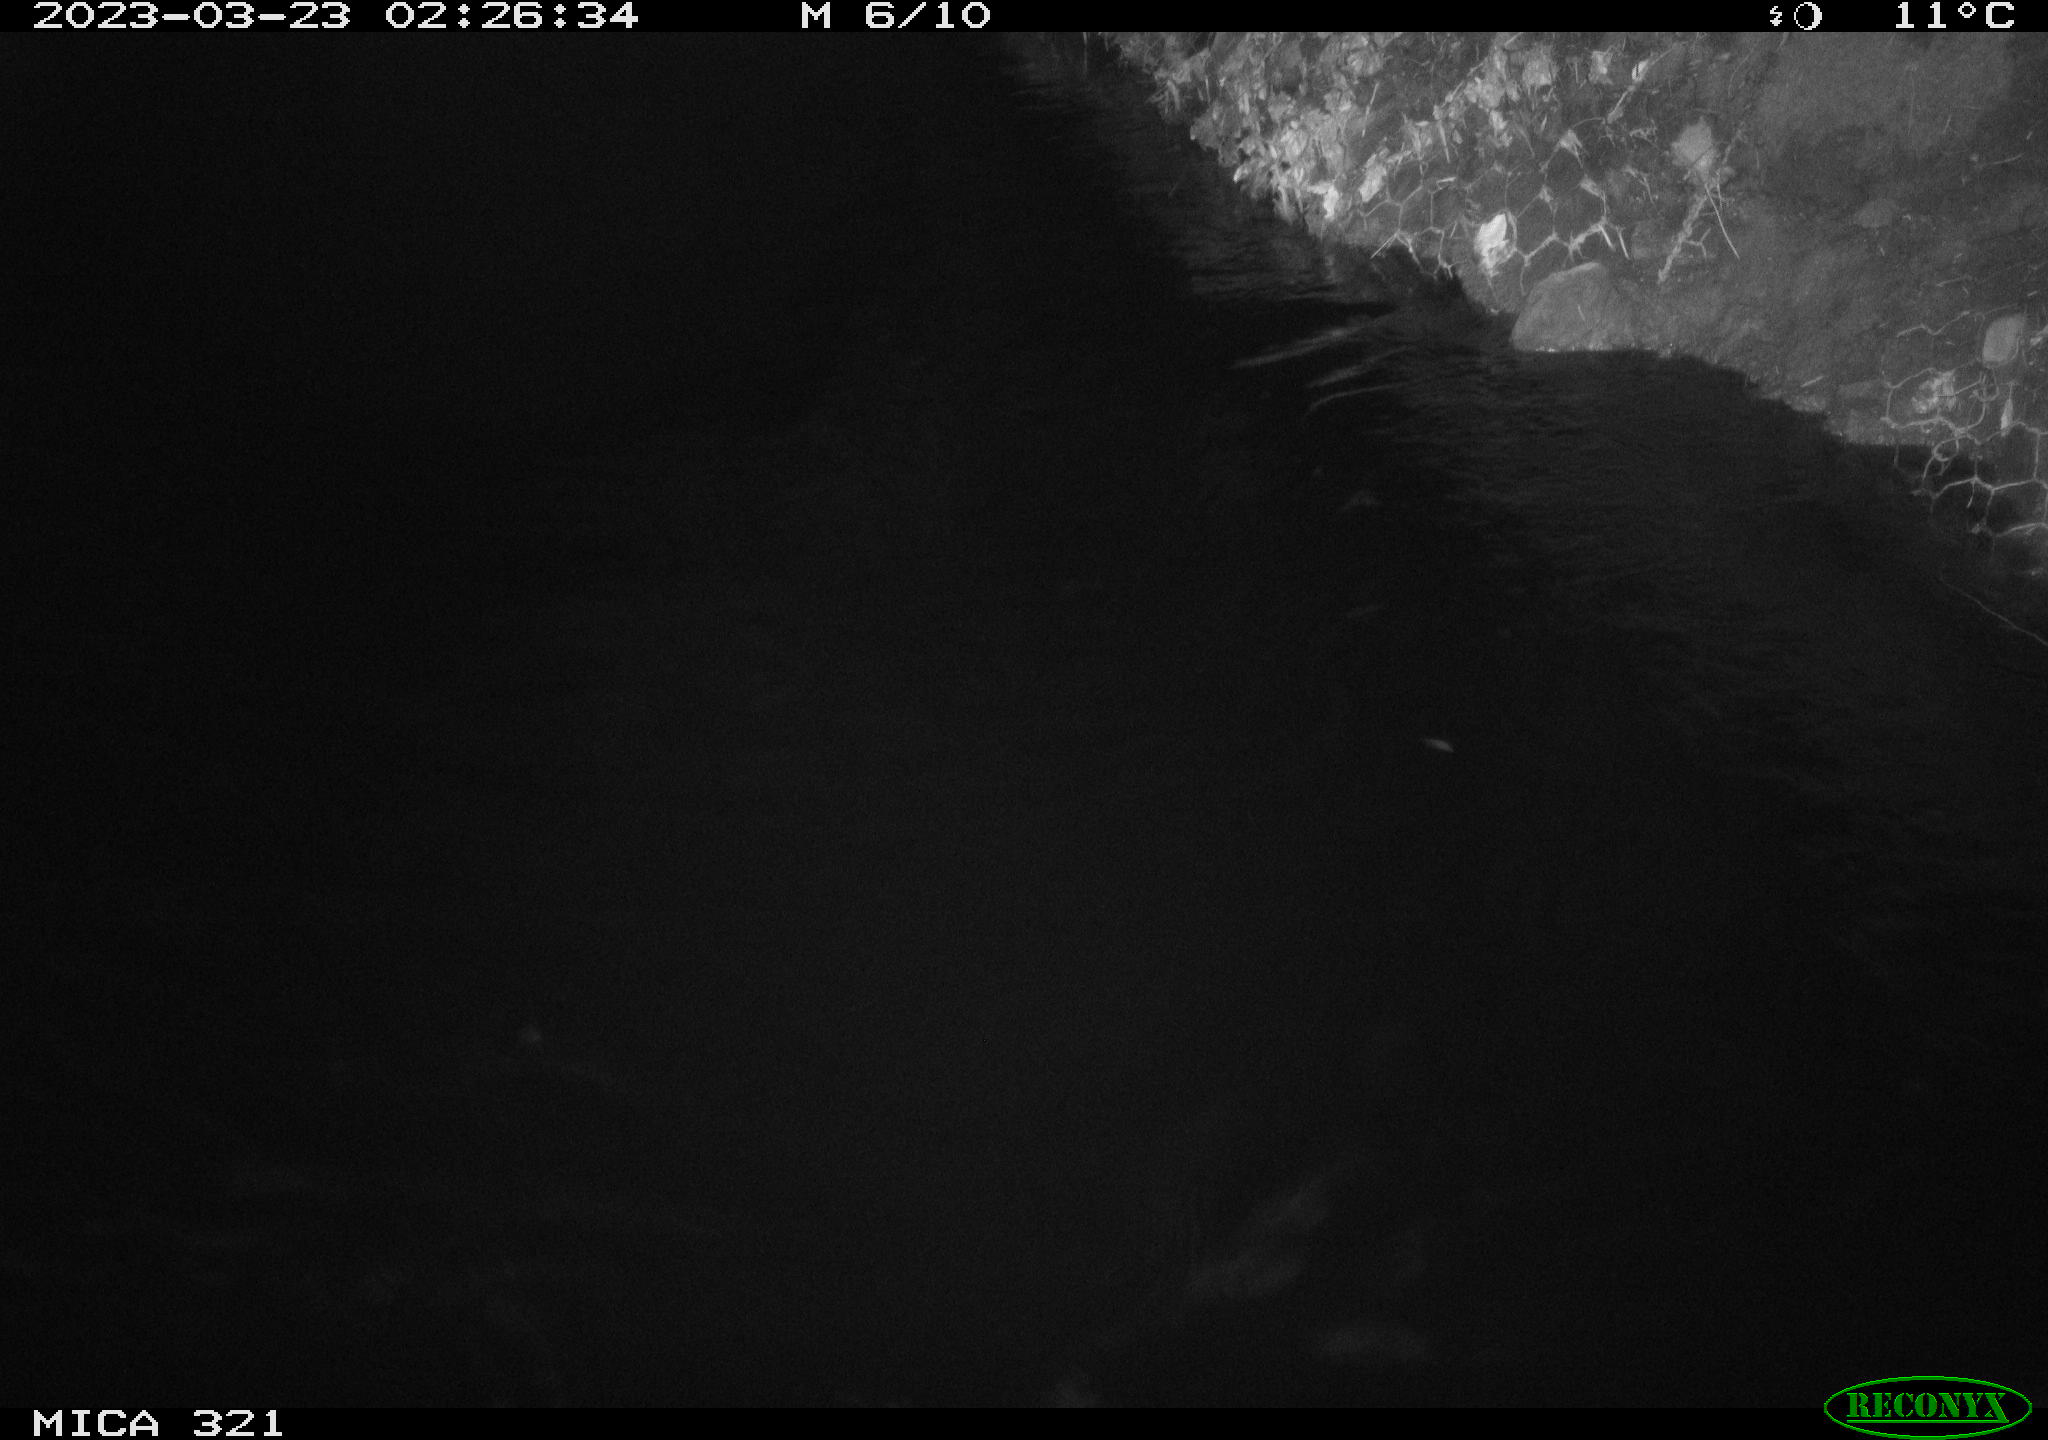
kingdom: Animalia
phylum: Chordata
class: Aves
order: Anseriformes
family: Anatidae
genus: Anas
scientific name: Anas
